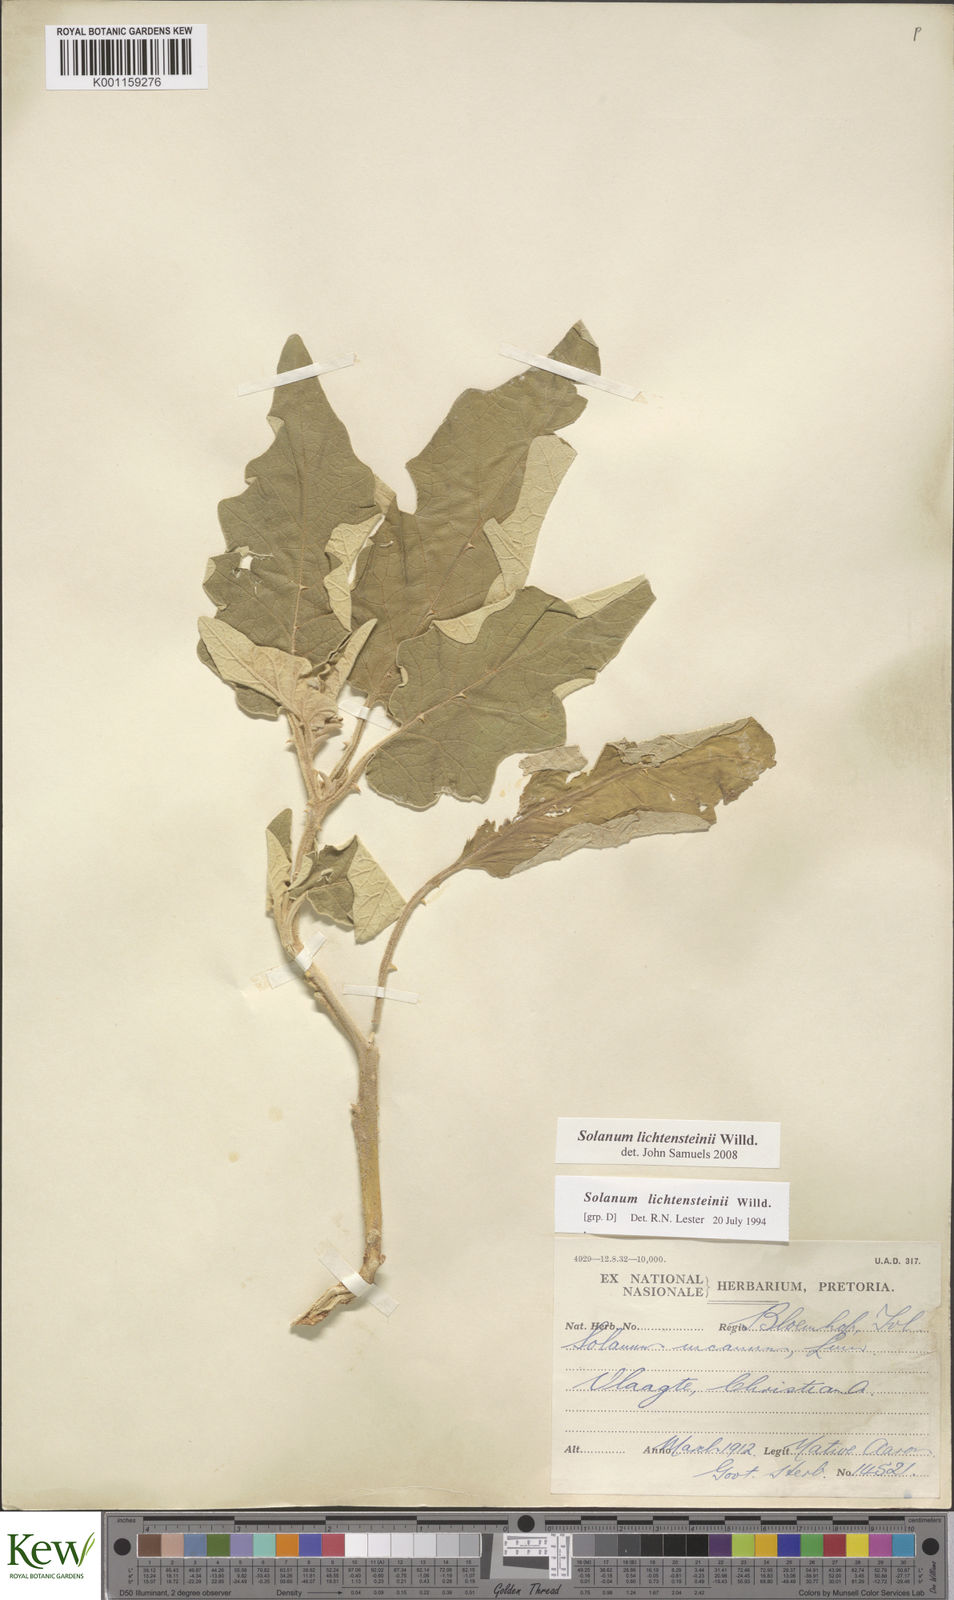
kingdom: Plantae
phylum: Tracheophyta
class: Magnoliopsida
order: Solanales
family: Solanaceae
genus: Solanum
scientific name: Solanum lichtensteinii
